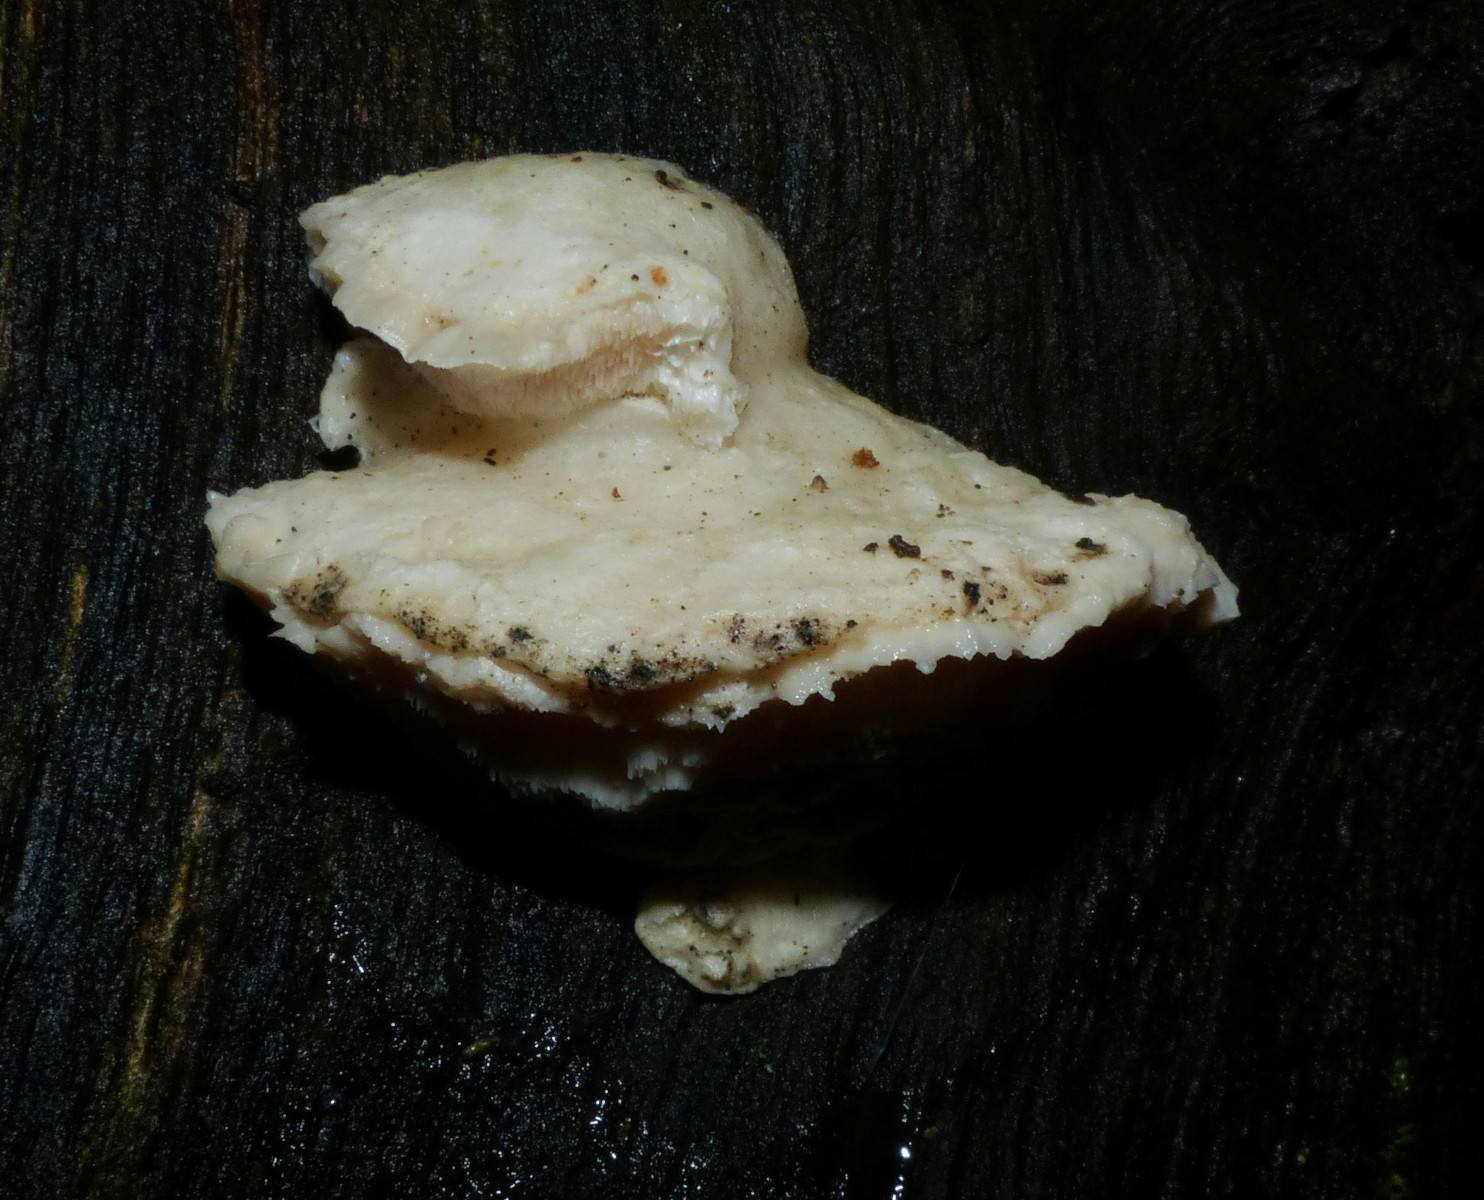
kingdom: Fungi
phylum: Basidiomycota
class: Agaricomycetes
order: Polyporales
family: Incrustoporiaceae
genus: Tyromyces
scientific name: Tyromyces lacteus
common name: mælkehvid kødporesvamp
